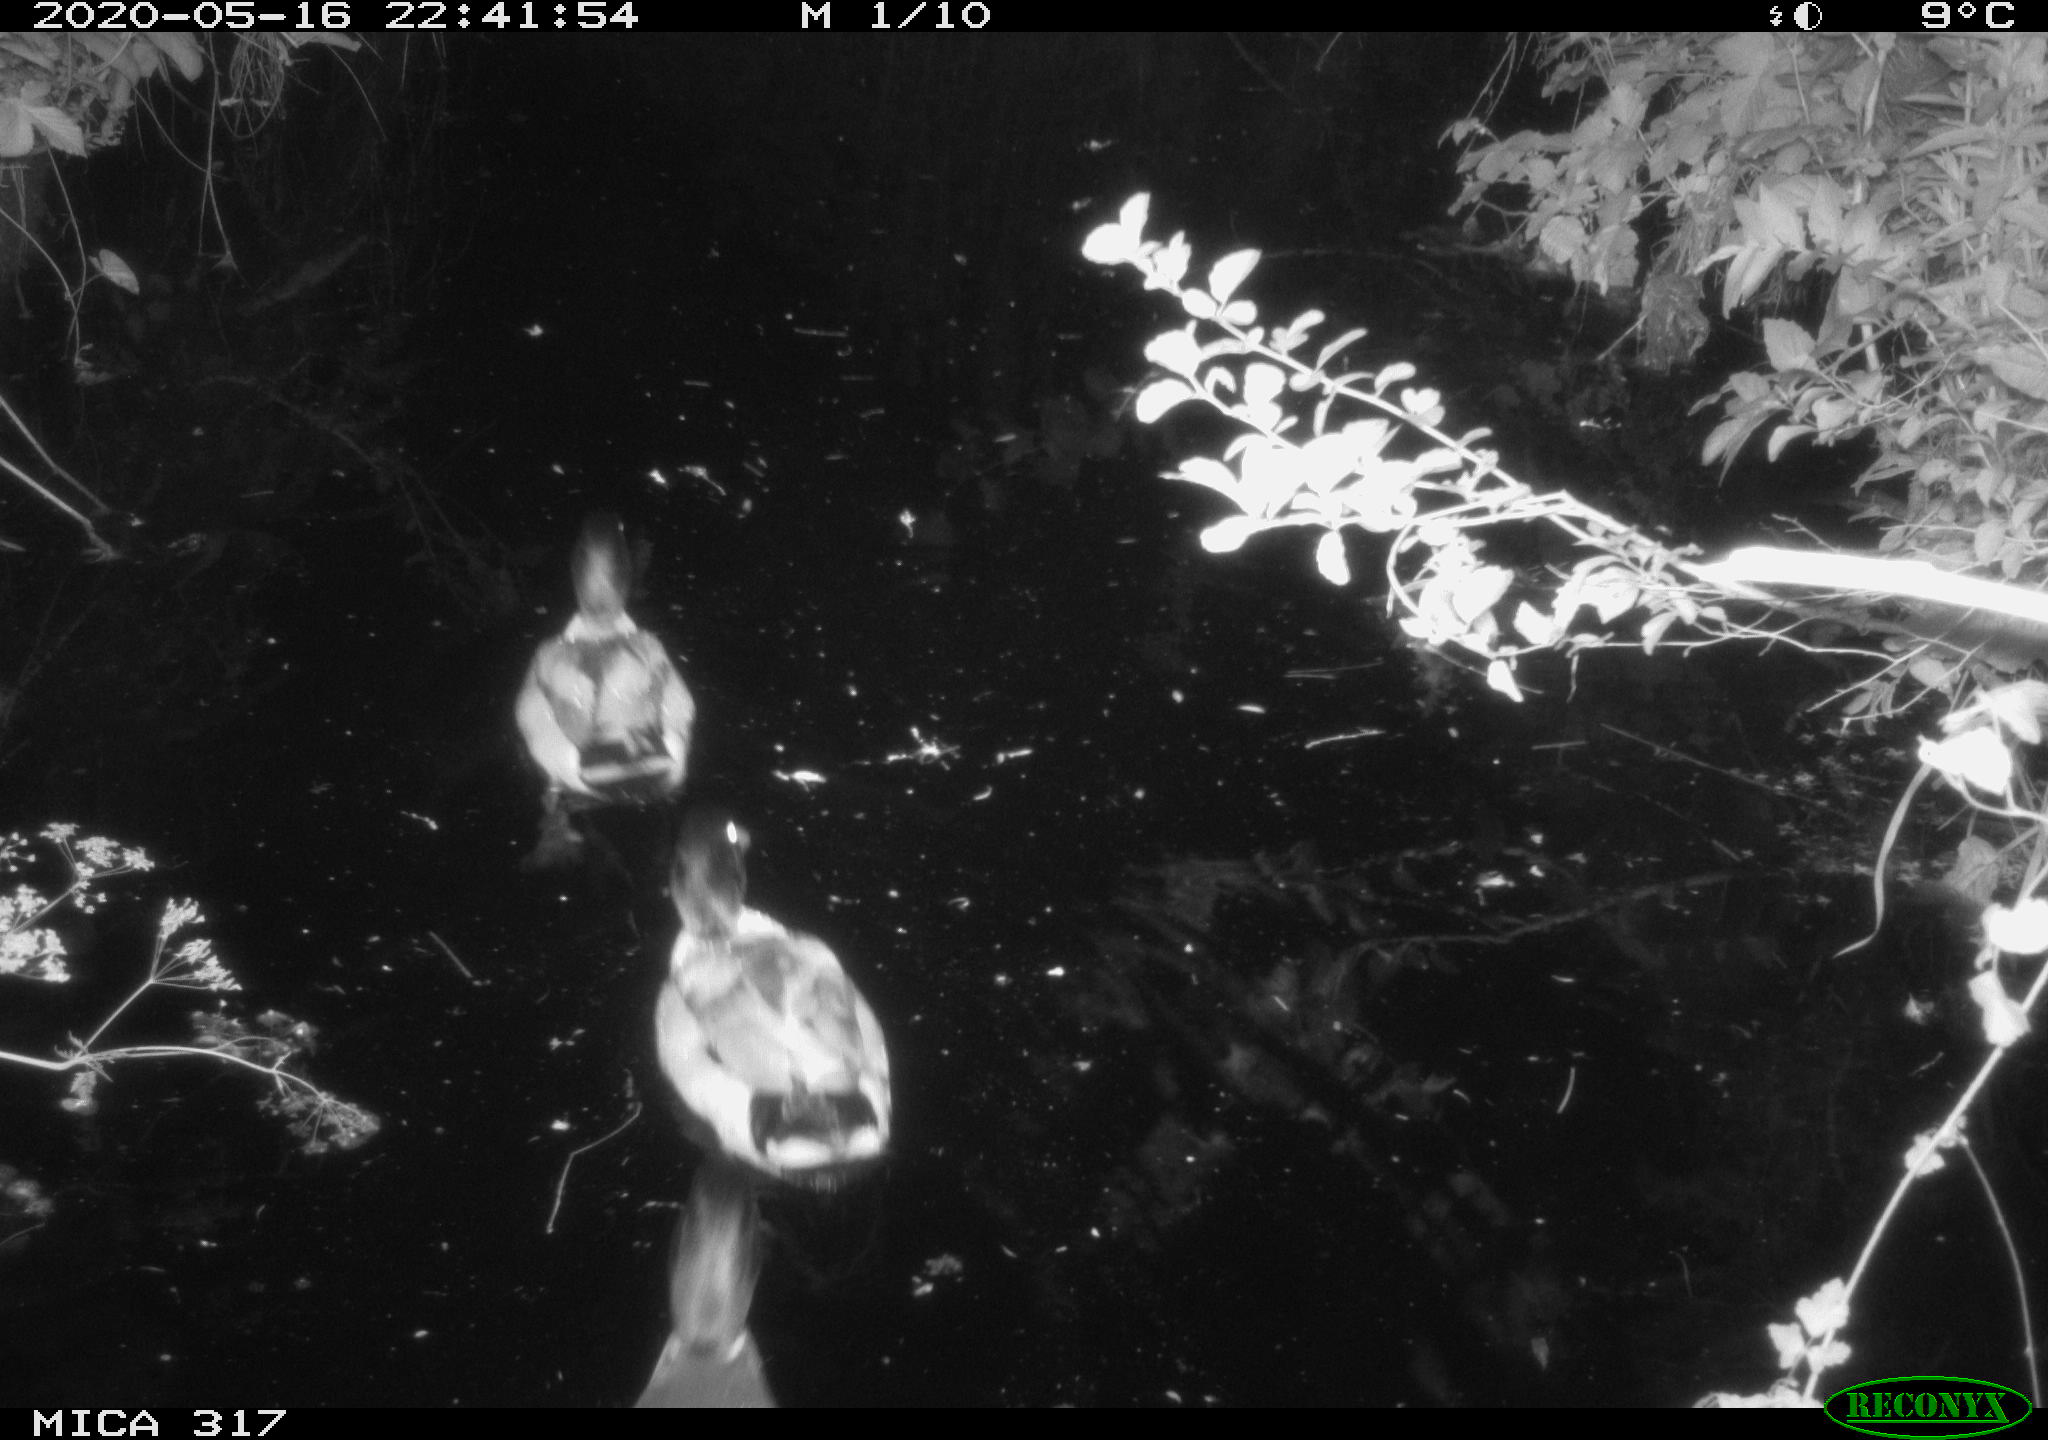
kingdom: Animalia
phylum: Chordata
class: Aves
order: Anseriformes
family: Anatidae
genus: Anas
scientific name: Anas platyrhynchos
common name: Mallard
